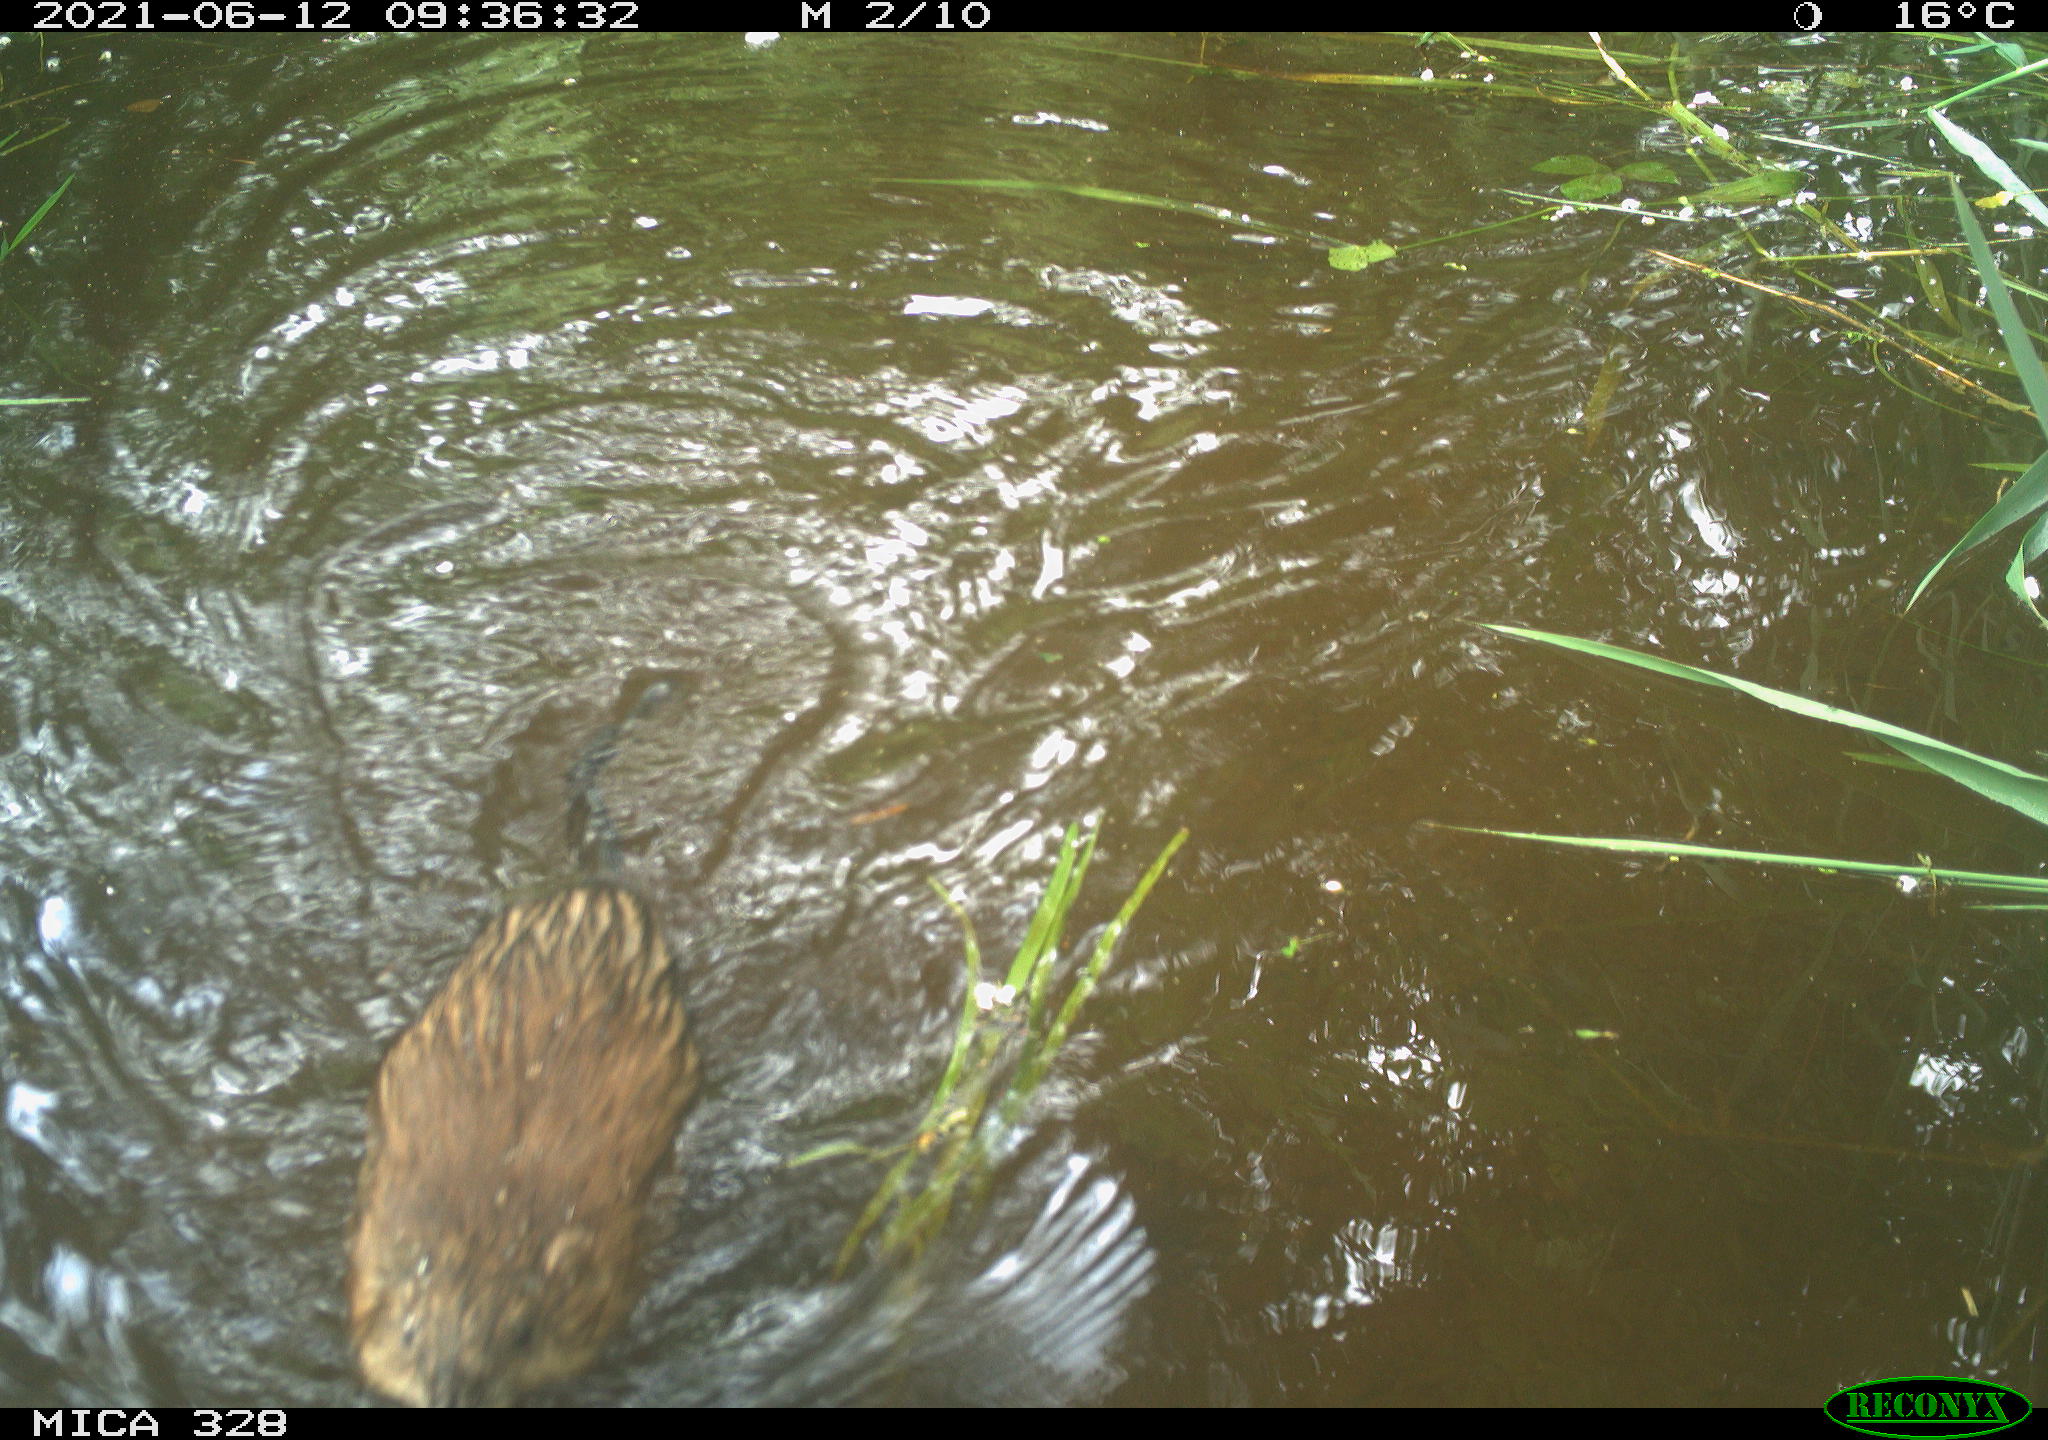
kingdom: Animalia
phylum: Chordata
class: Mammalia
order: Rodentia
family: Cricetidae
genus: Ondatra
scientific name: Ondatra zibethicus
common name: Muskrat
